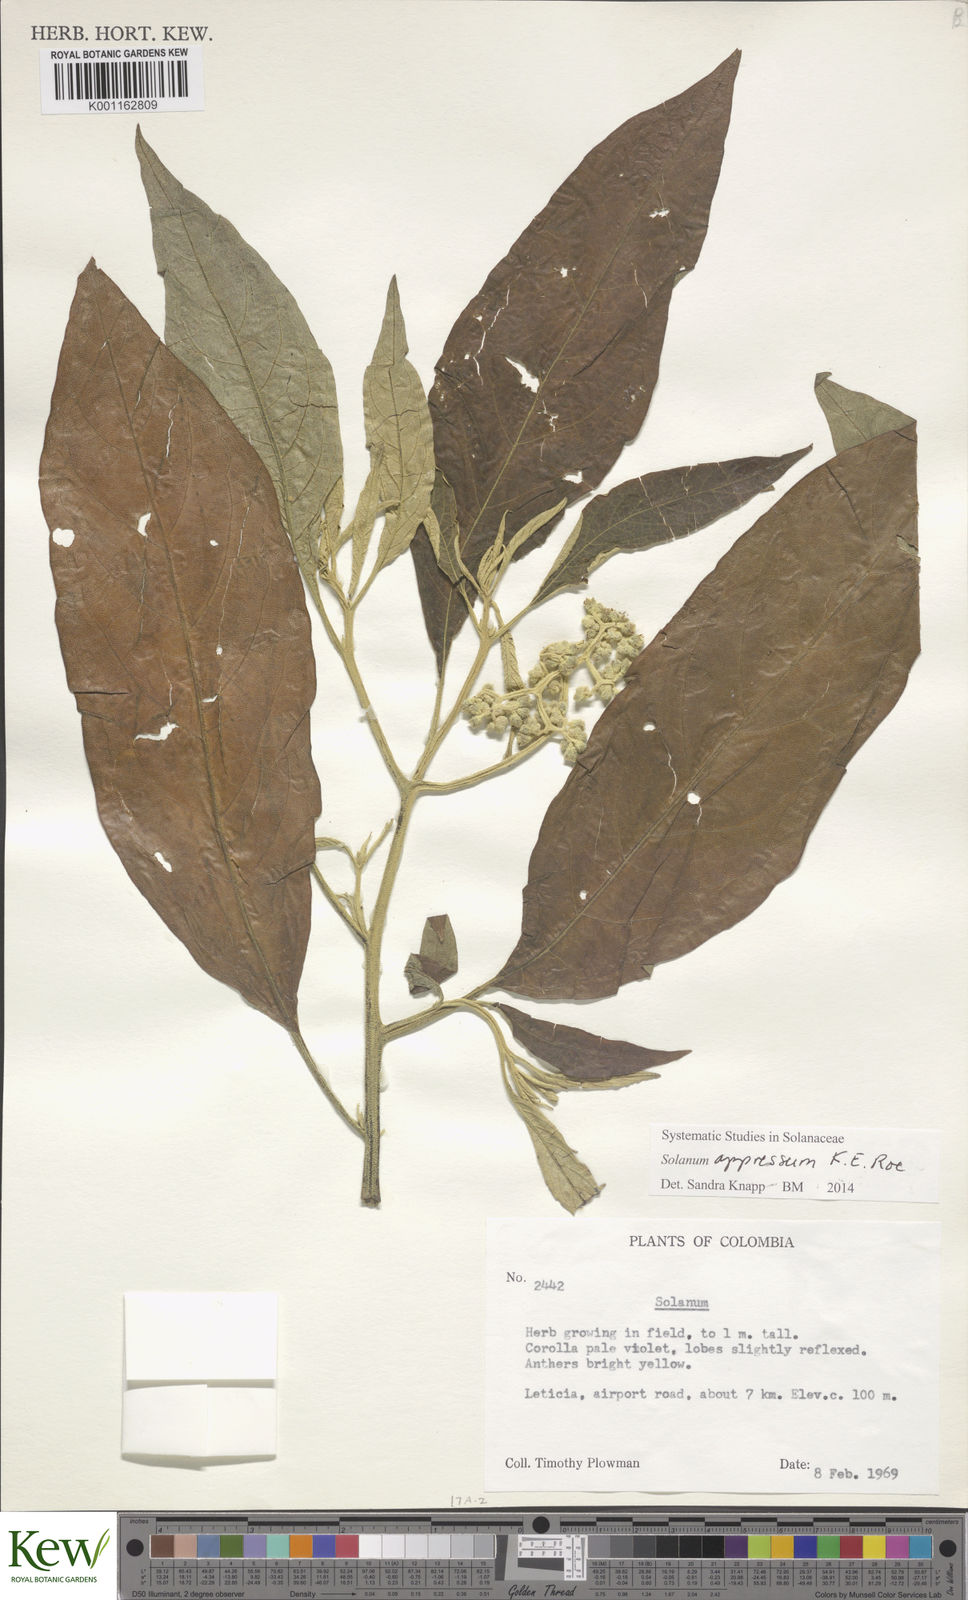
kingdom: Plantae
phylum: Tracheophyta
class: Magnoliopsida
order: Solanales
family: Solanaceae
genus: Solanum
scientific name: Solanum appressum
